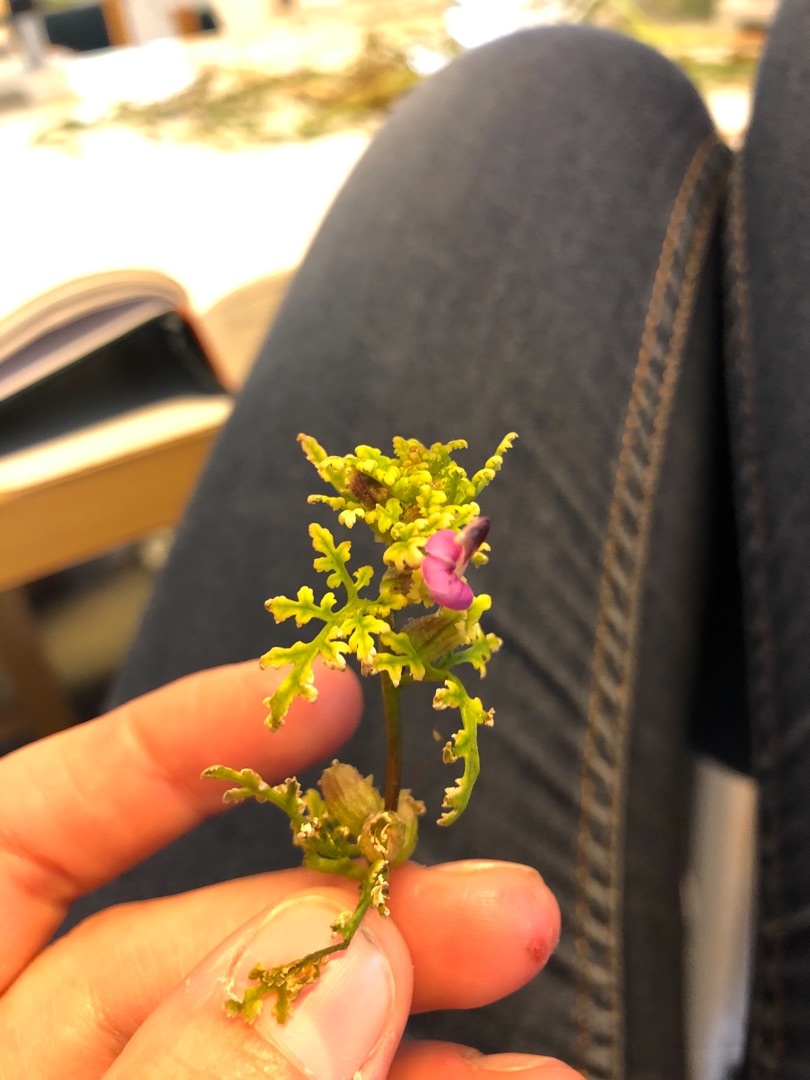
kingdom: Plantae
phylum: Tracheophyta
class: Magnoliopsida
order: Lamiales
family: Orobanchaceae
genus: Pedicularis
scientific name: Pedicularis sylvatica
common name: Mose-troldurt
